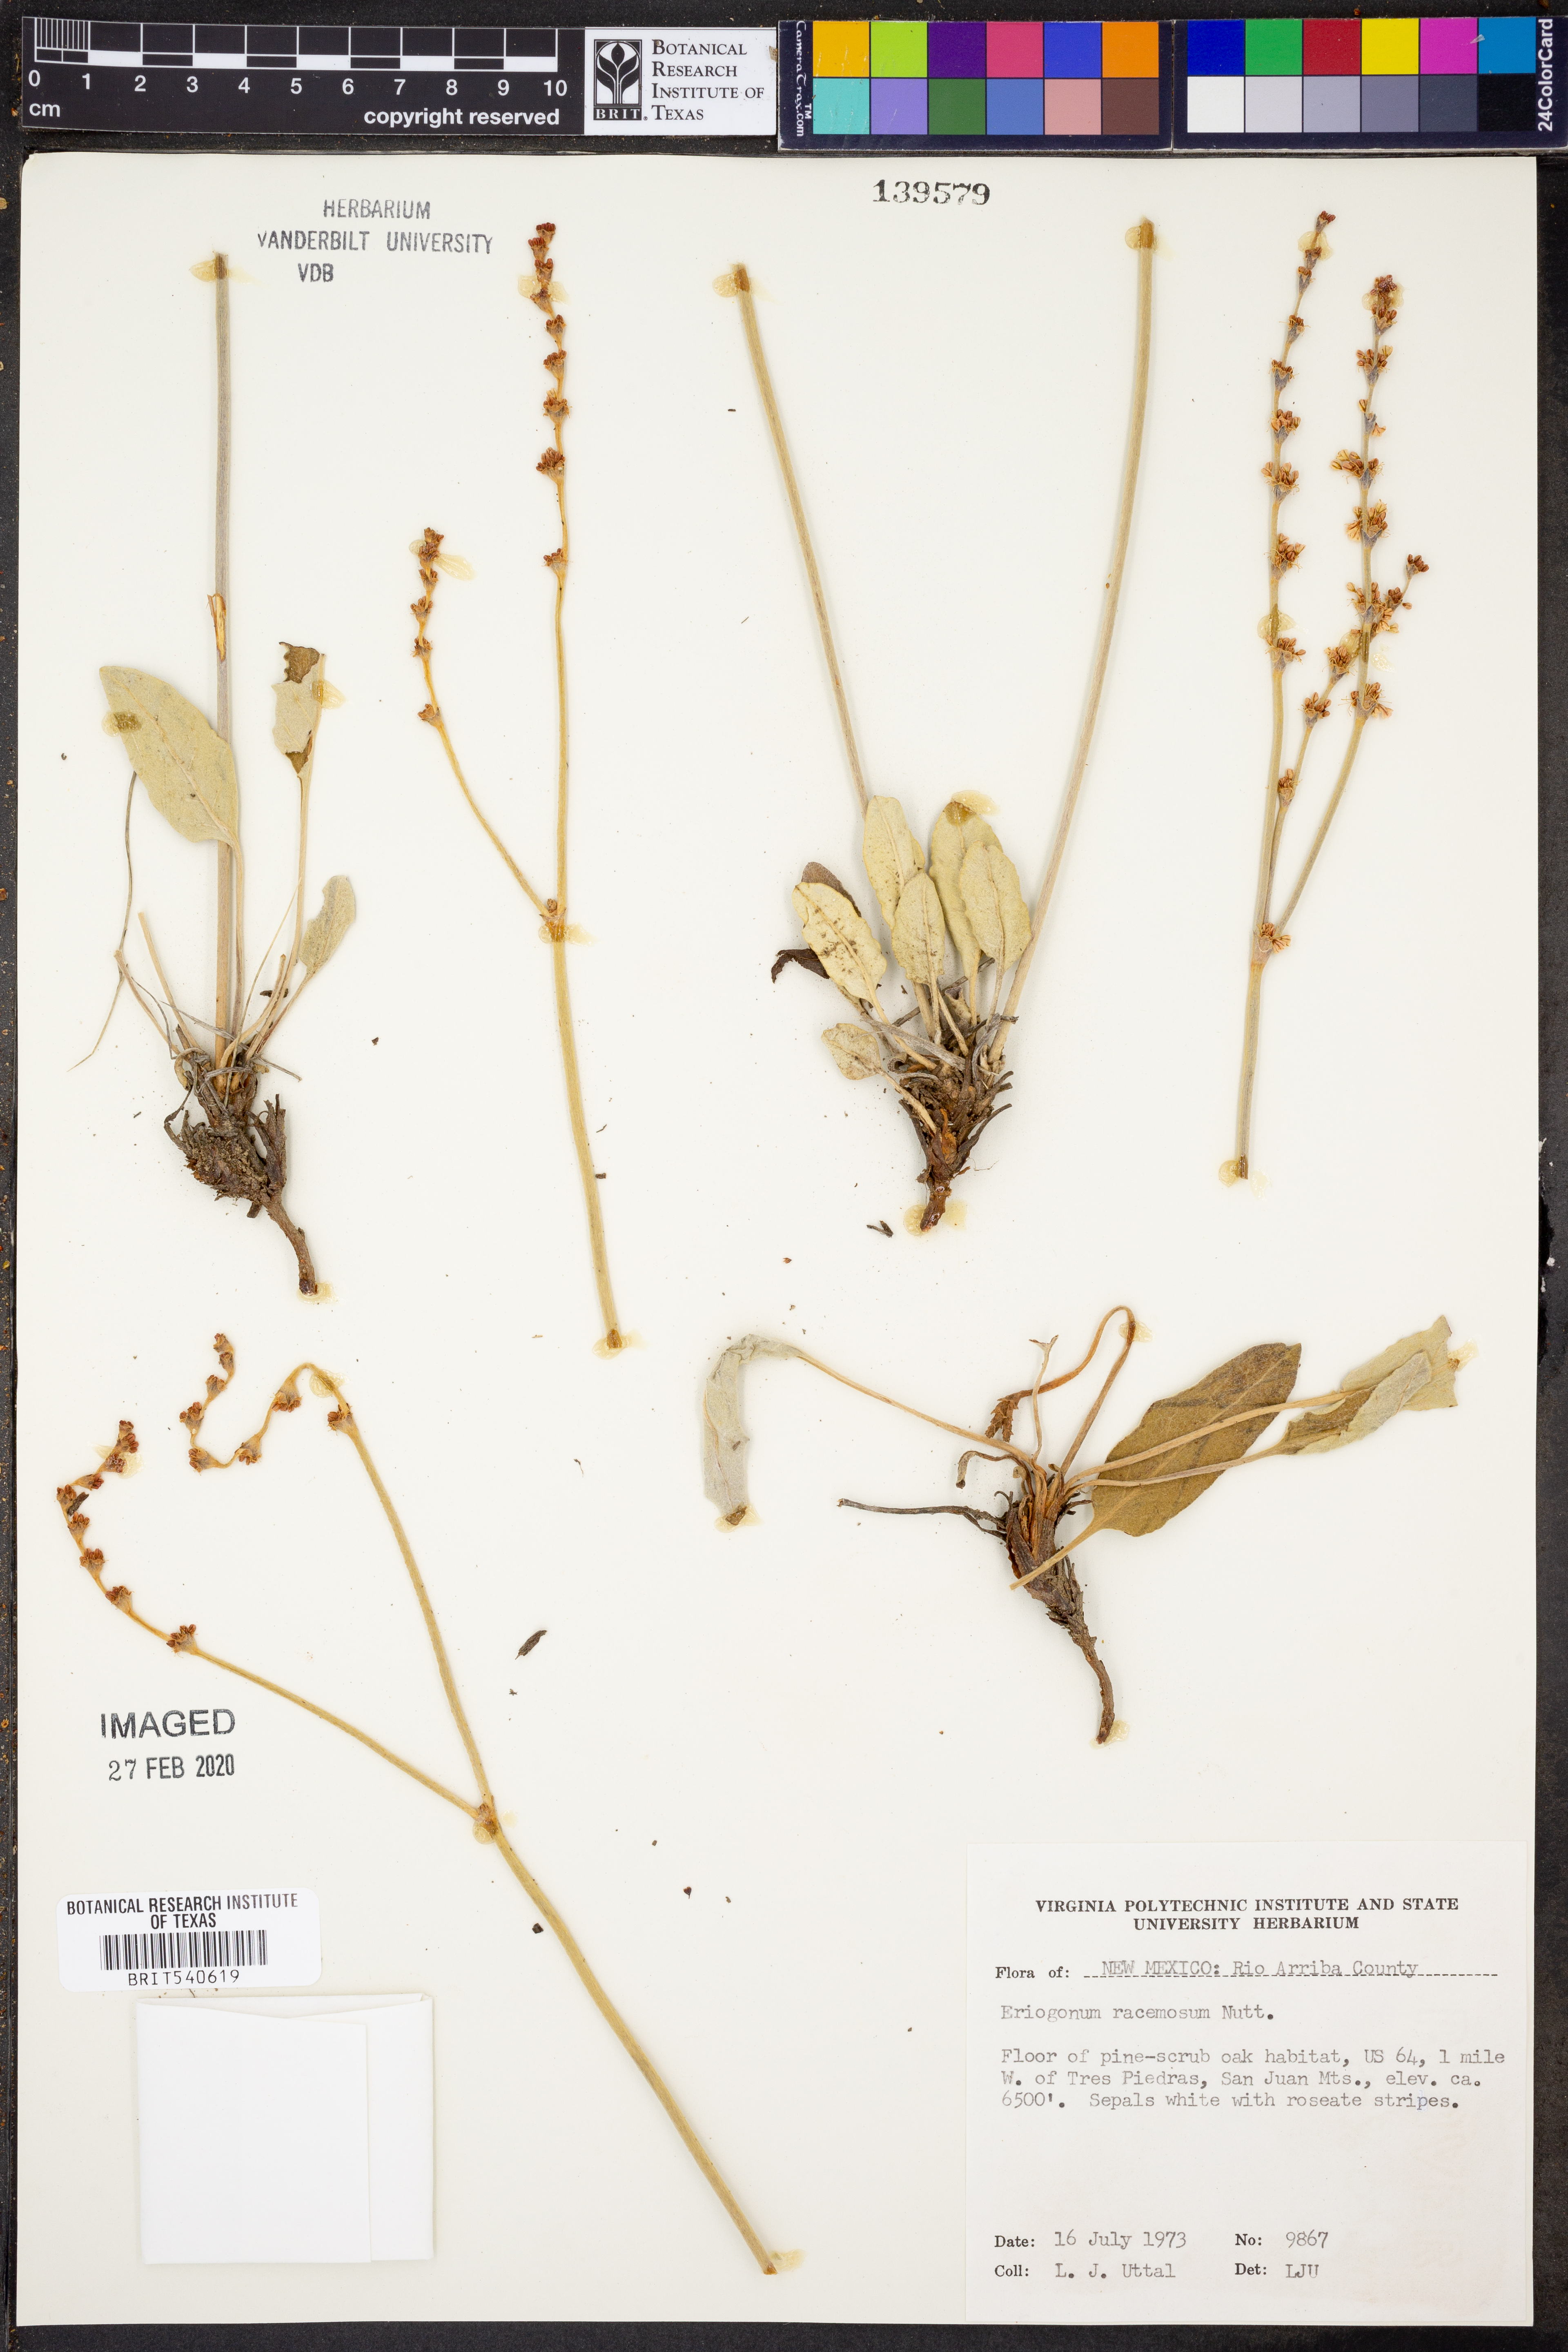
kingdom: Plantae
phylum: Tracheophyta
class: Magnoliopsida
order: Caryophyllales
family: Polygonaceae
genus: Eriogonum
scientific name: Eriogonum racemosum
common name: Redroot wild buckwheat
